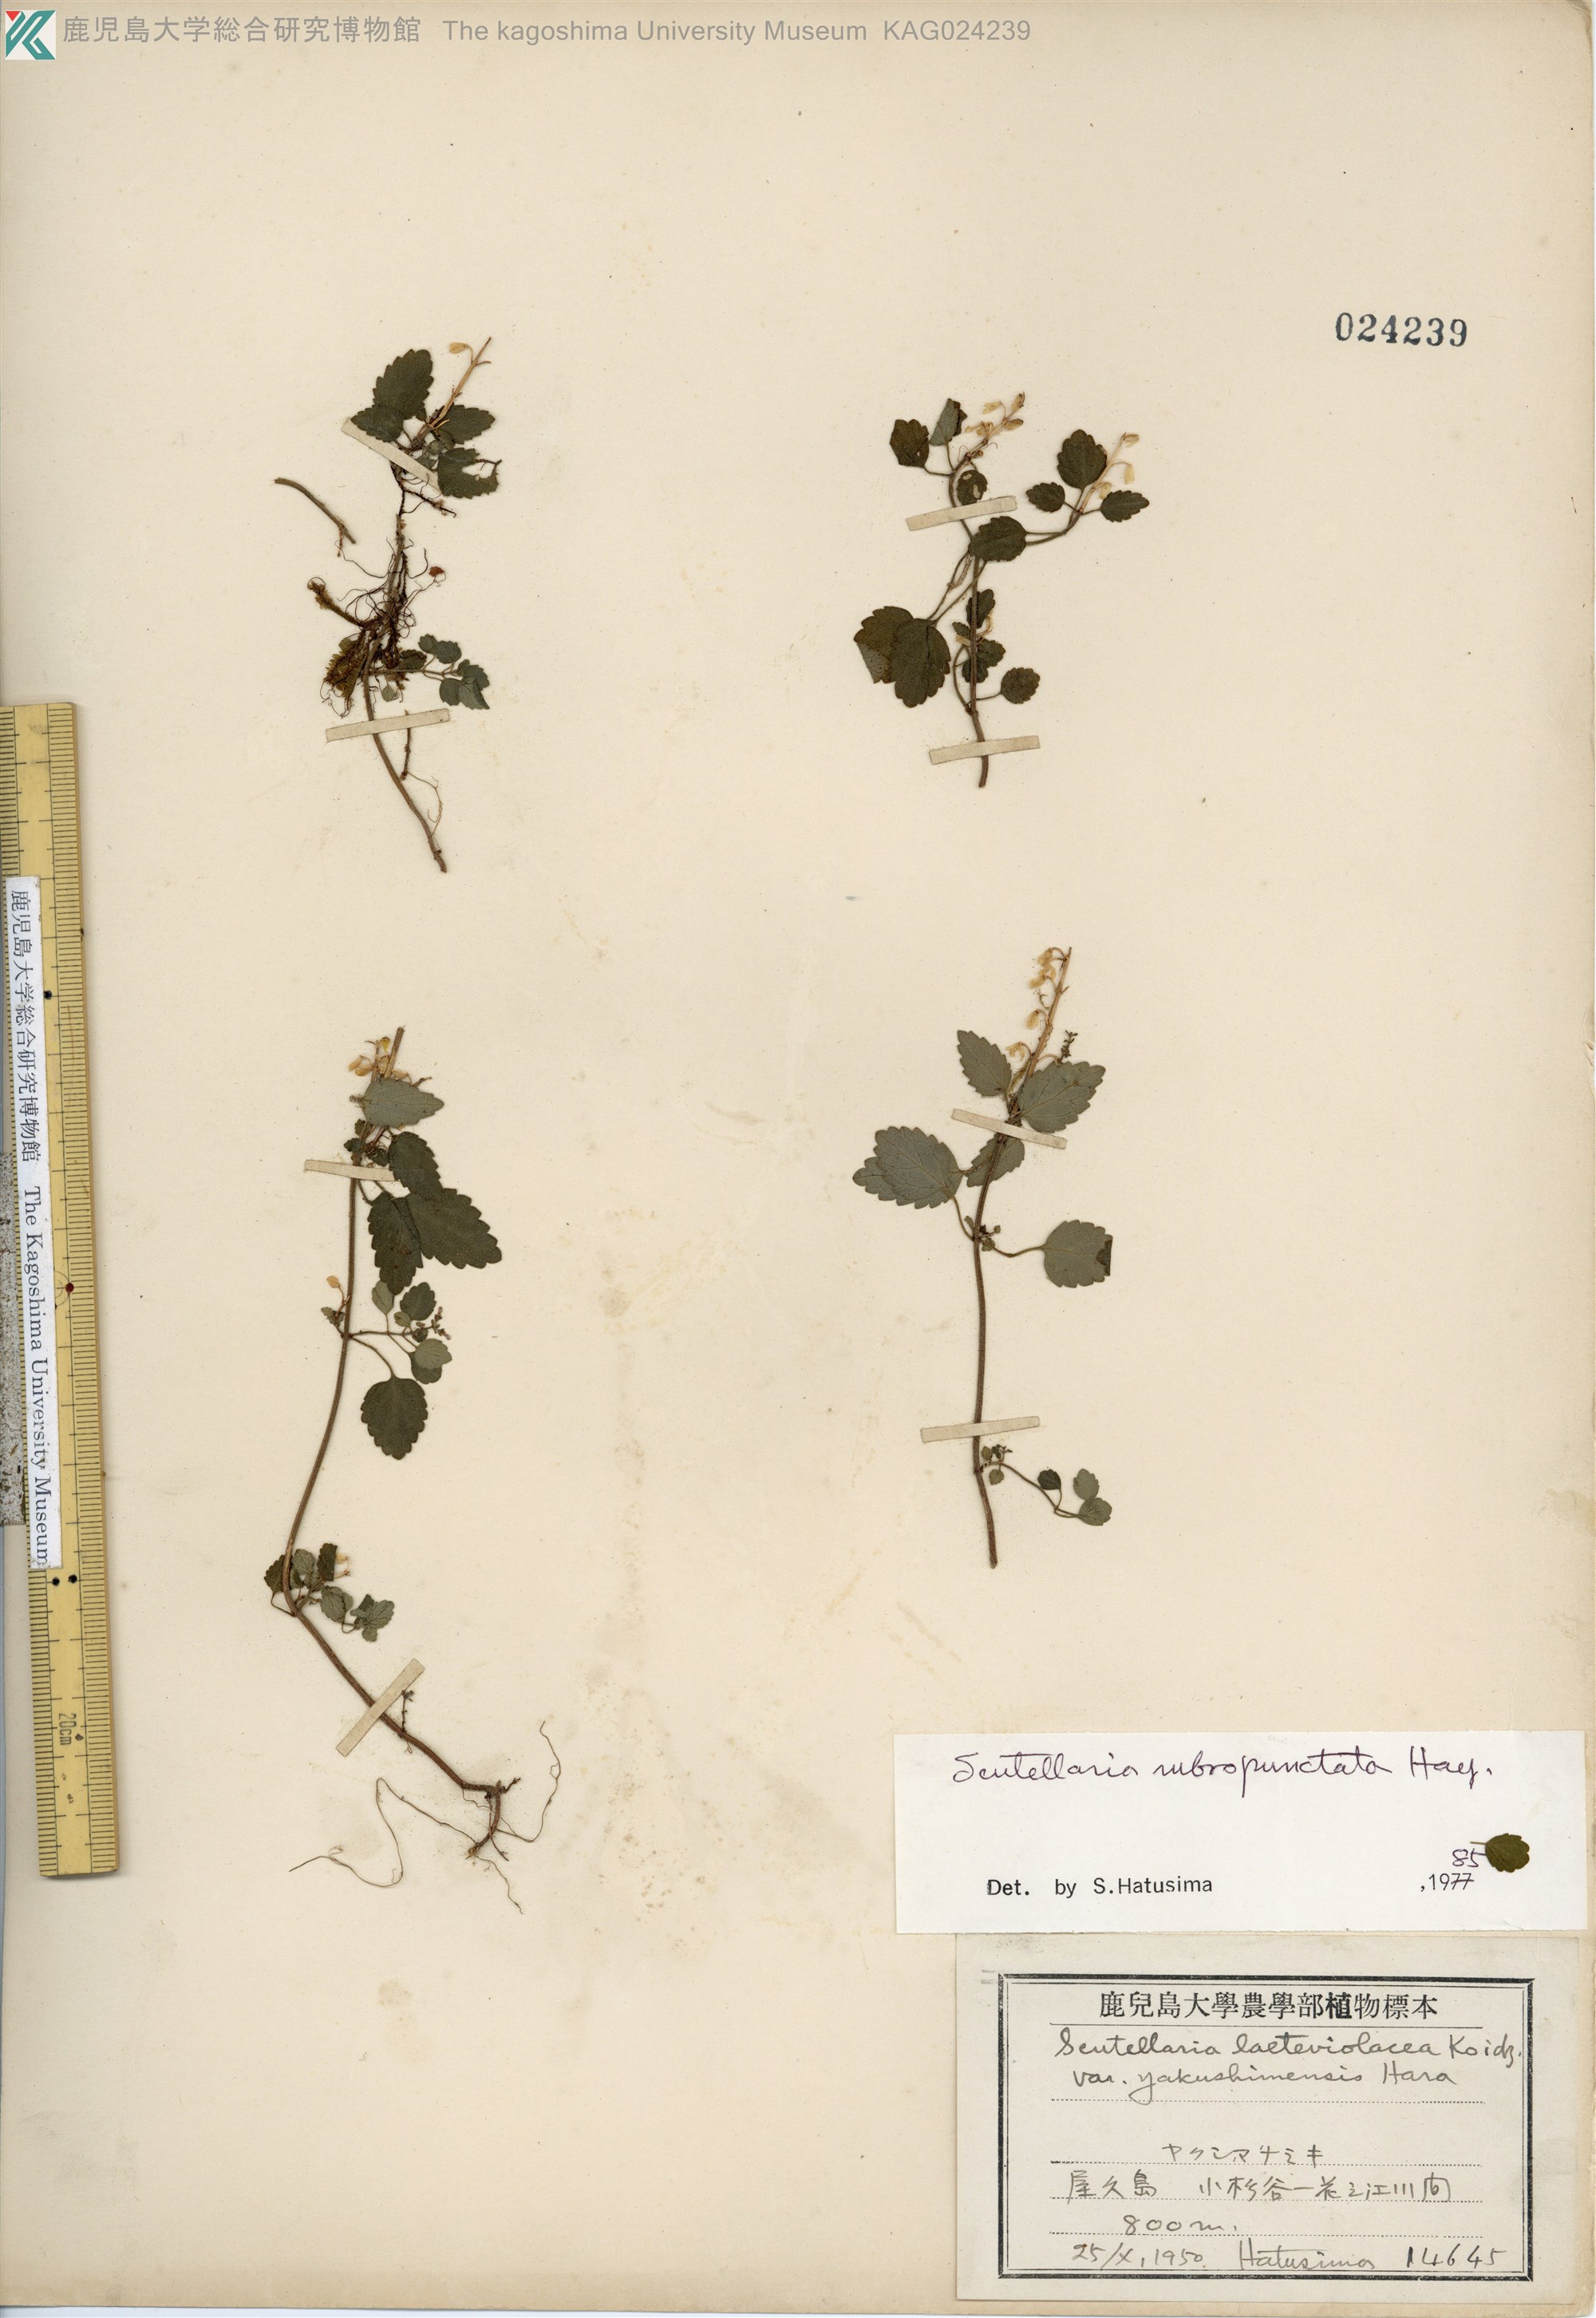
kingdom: Plantae
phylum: Tracheophyta
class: Magnoliopsida
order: Lamiales
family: Lamiaceae
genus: Scutellaria
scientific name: Scutellaria rubropunctata
